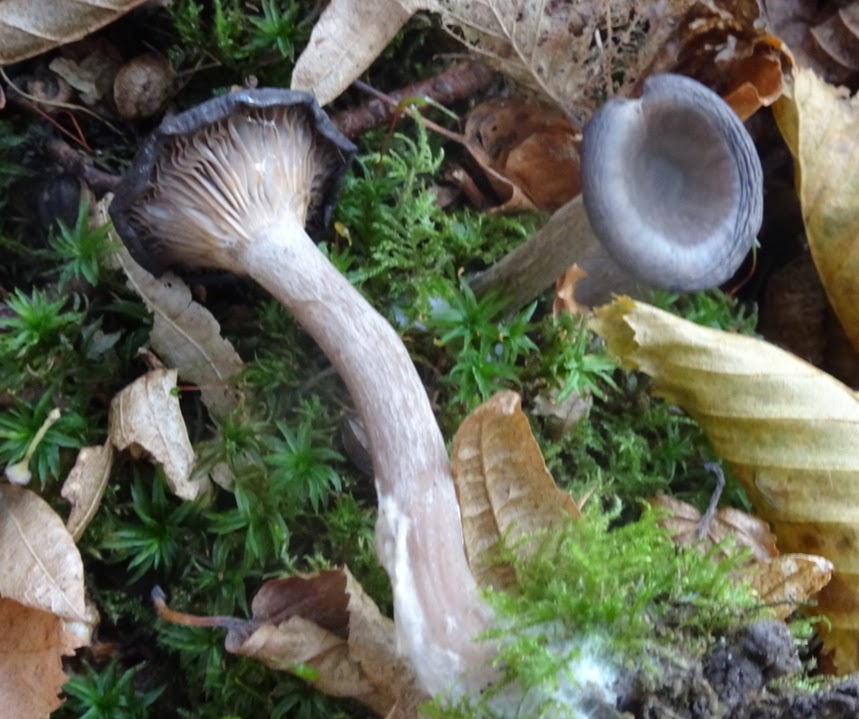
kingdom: Fungi
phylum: Basidiomycota
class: Agaricomycetes
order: Agaricales
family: Pseudoclitocybaceae
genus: Pseudoclitocybe
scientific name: Pseudoclitocybe cyathiformis
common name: almindelig bægertragthat
